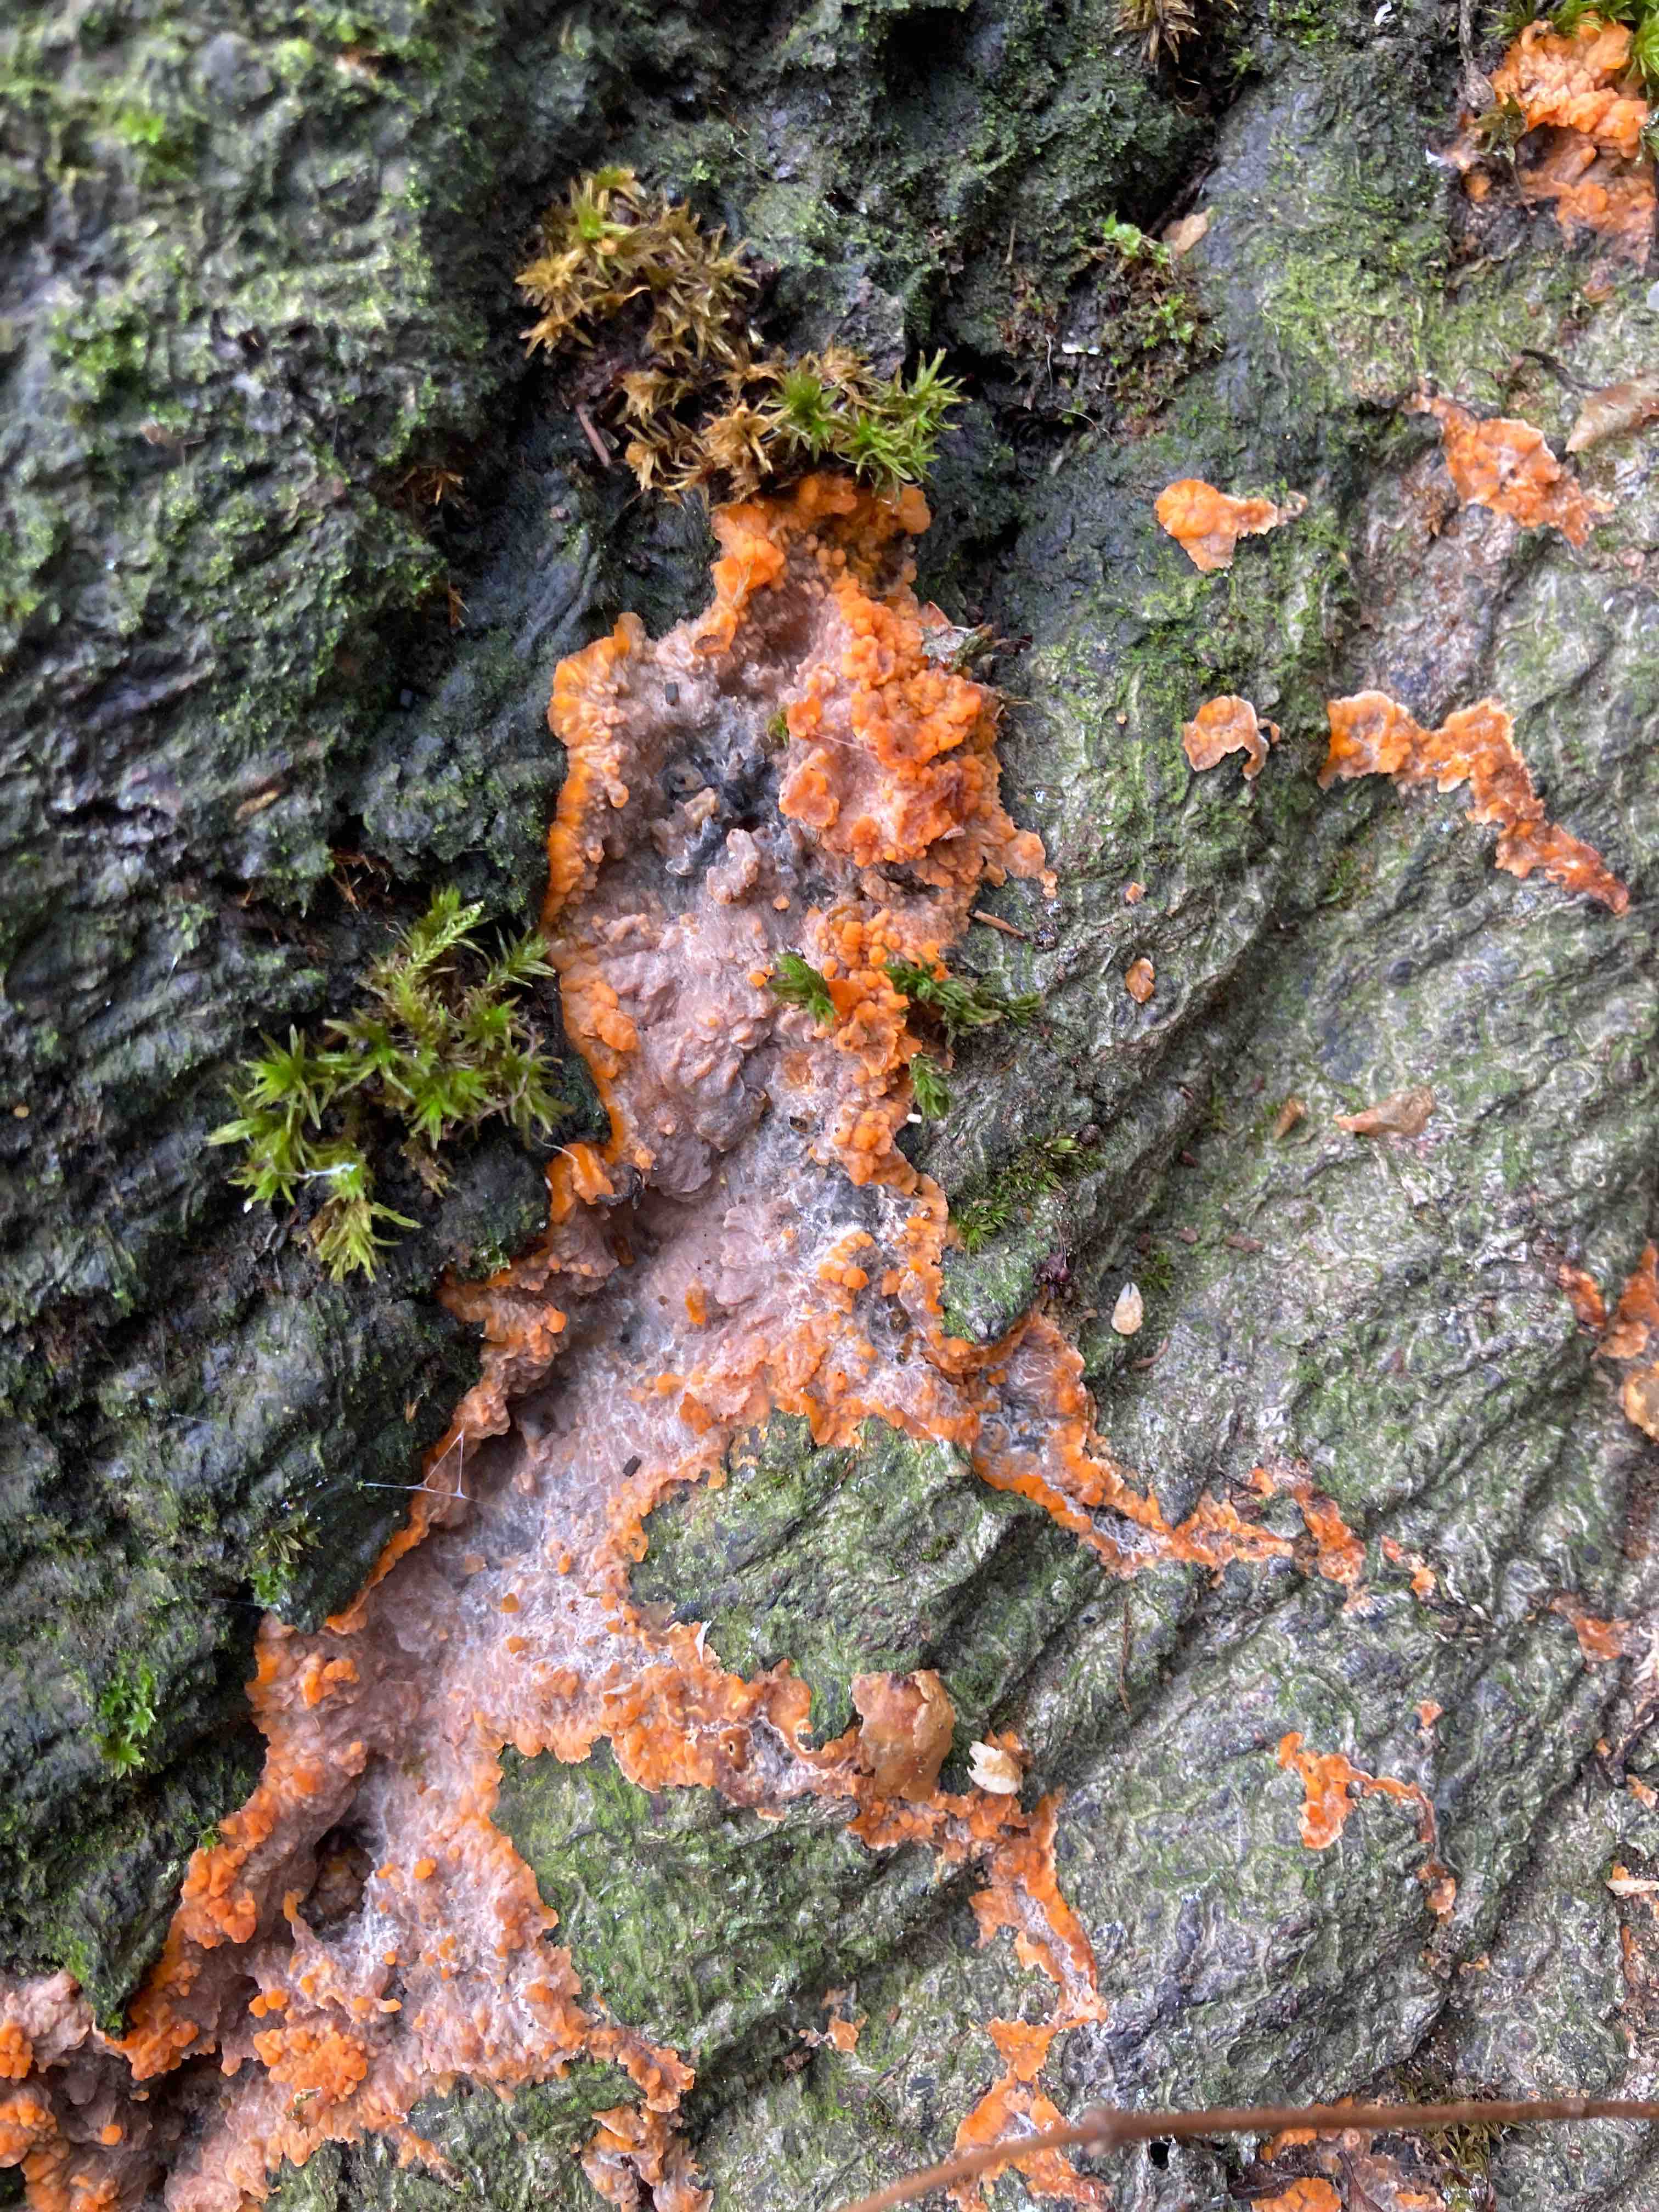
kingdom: Fungi
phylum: Basidiomycota
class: Agaricomycetes
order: Polyporales
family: Meruliaceae
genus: Phlebia
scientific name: Phlebia radiata
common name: stråle-åresvamp
